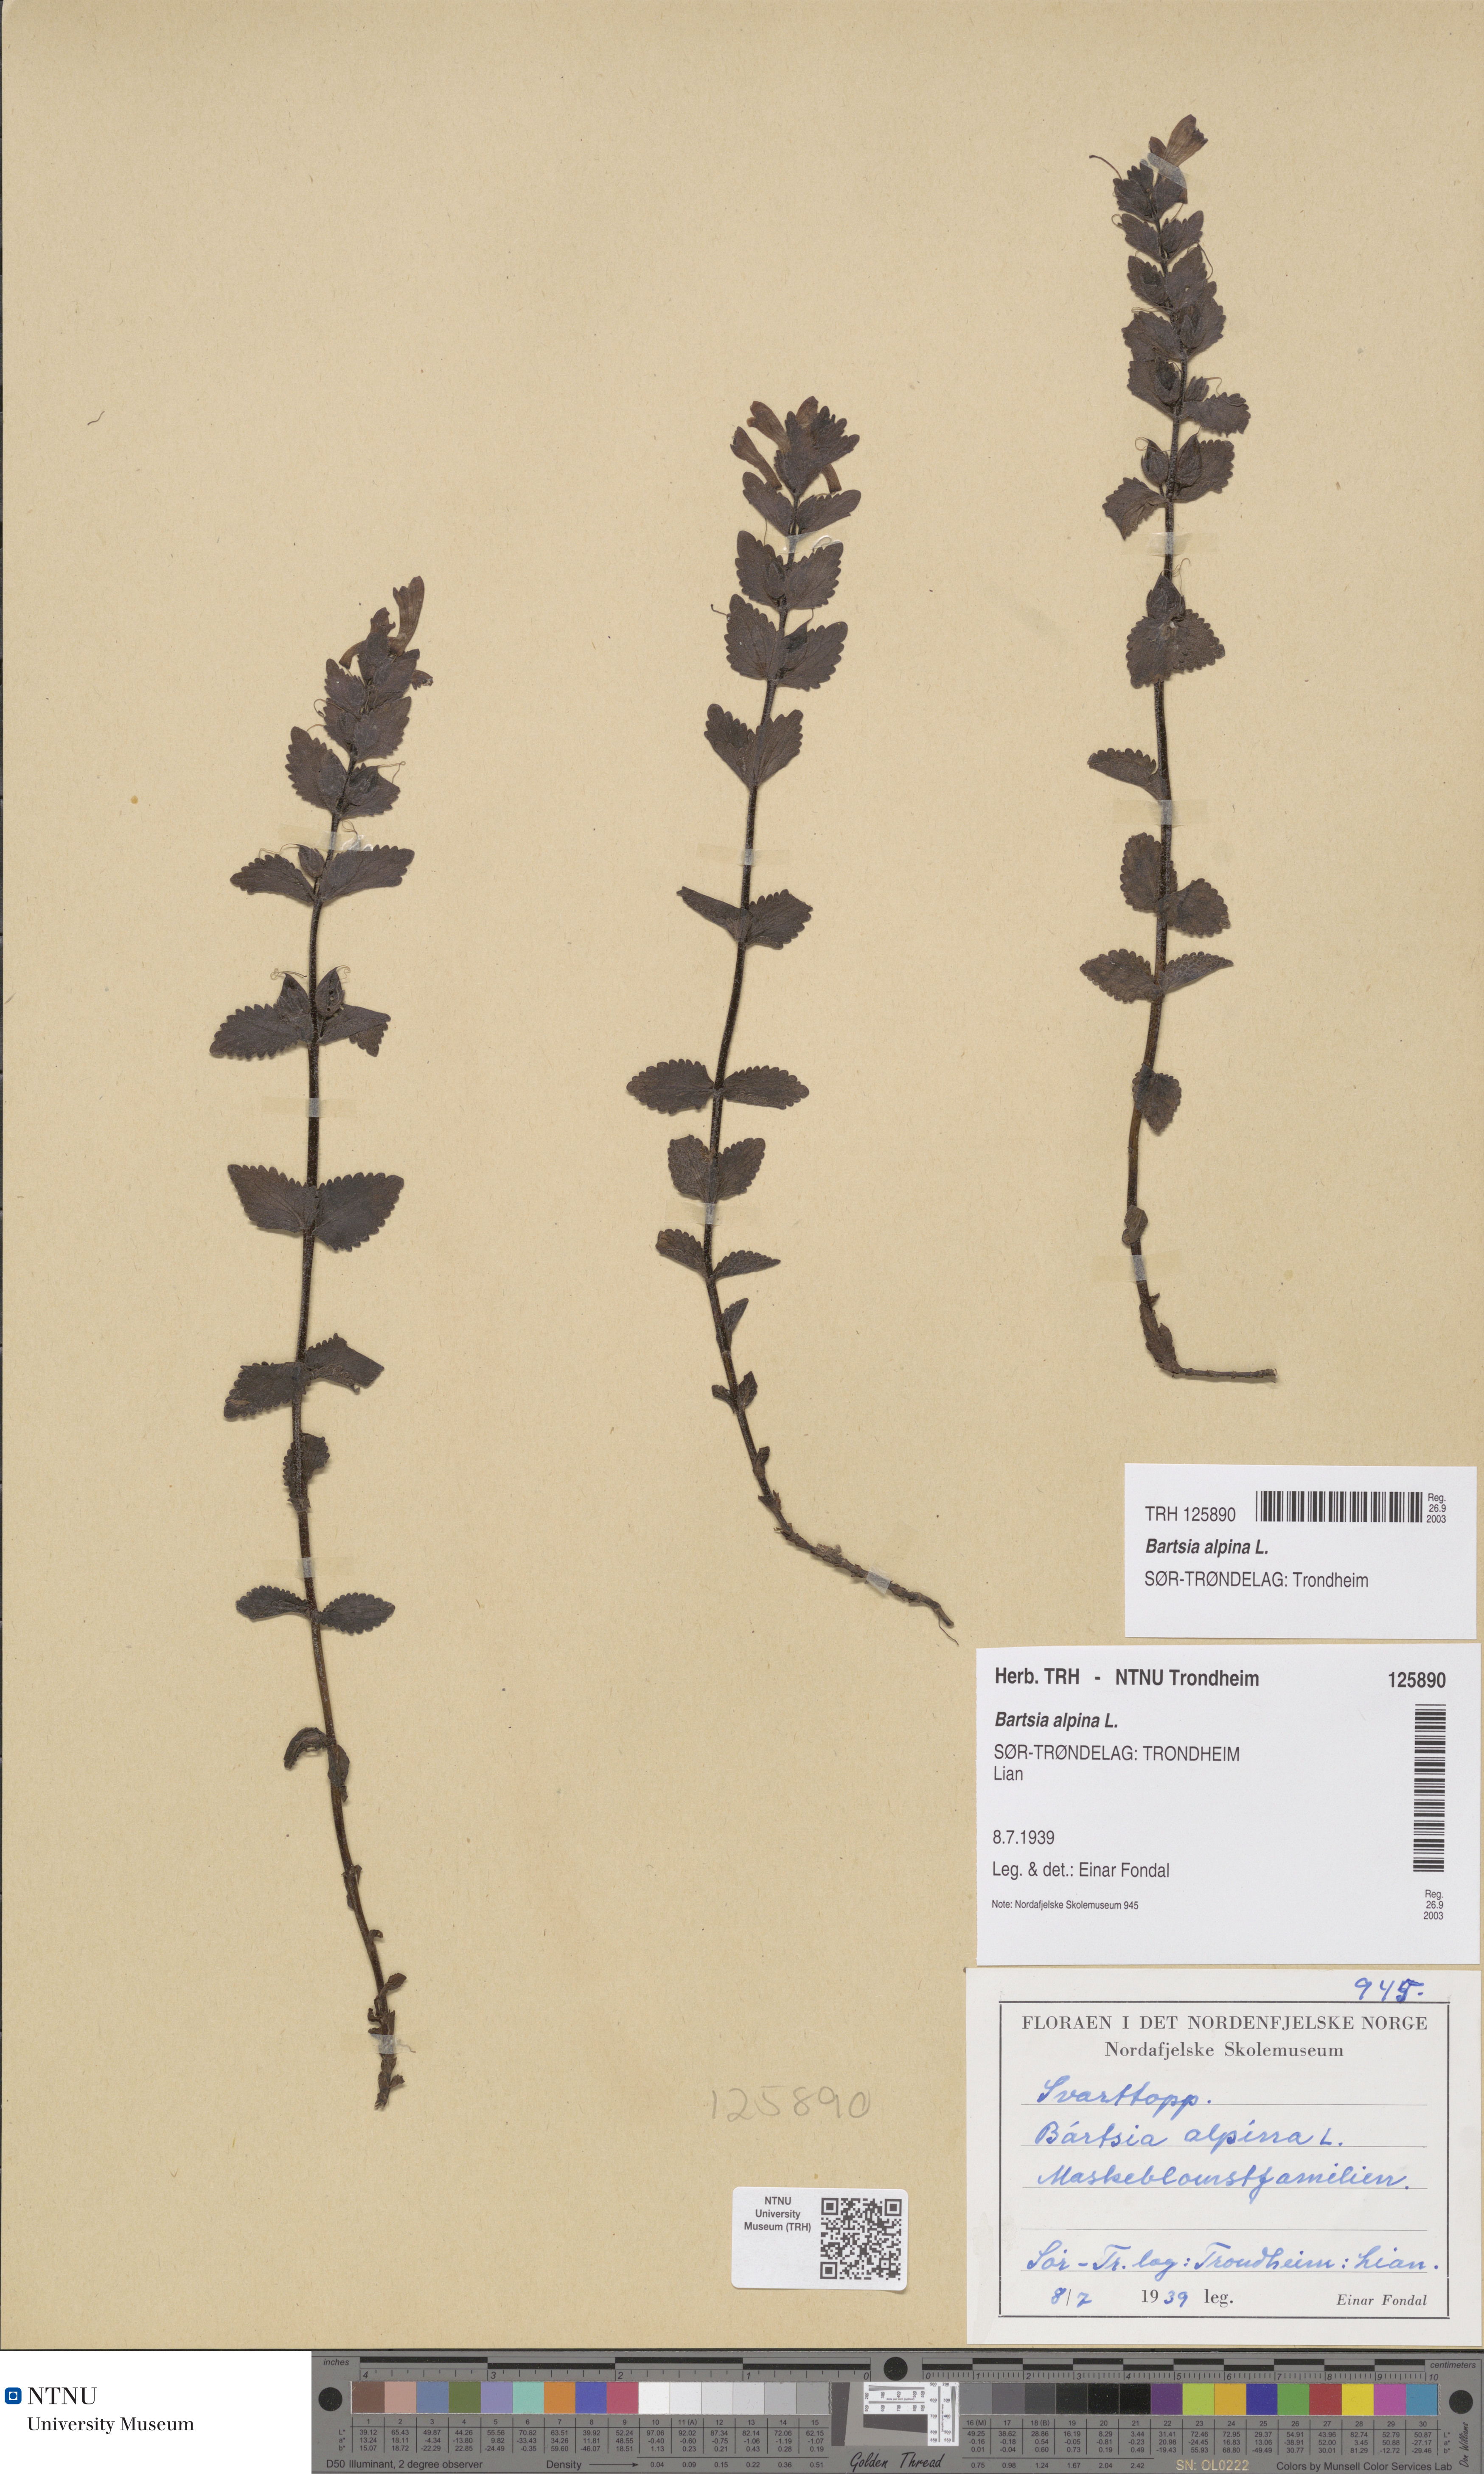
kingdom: Plantae
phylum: Tracheophyta
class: Magnoliopsida
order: Lamiales
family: Orobanchaceae
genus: Bartsia
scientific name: Bartsia alpina
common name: Alpine bartsia
